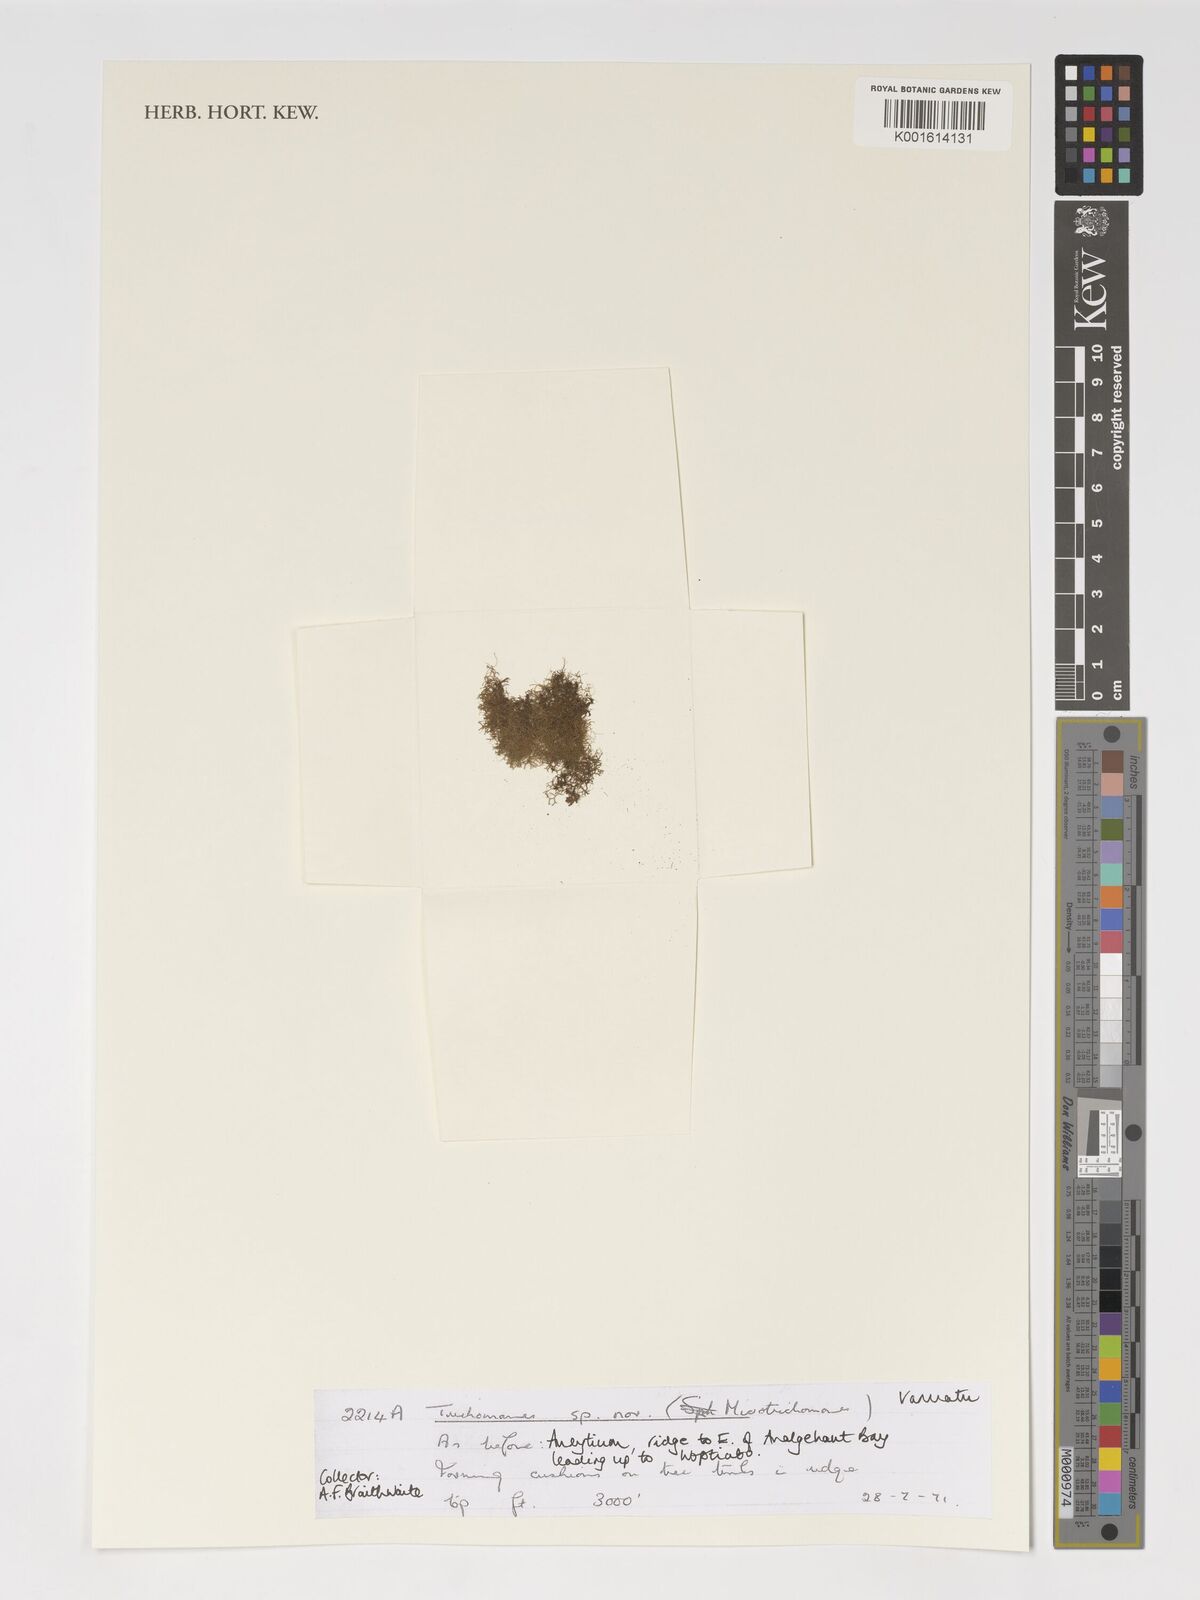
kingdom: Plantae
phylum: Tracheophyta
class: Polypodiopsida
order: Hymenophyllales
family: Hymenophyllaceae
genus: Trichomanes
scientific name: Trichomanes
